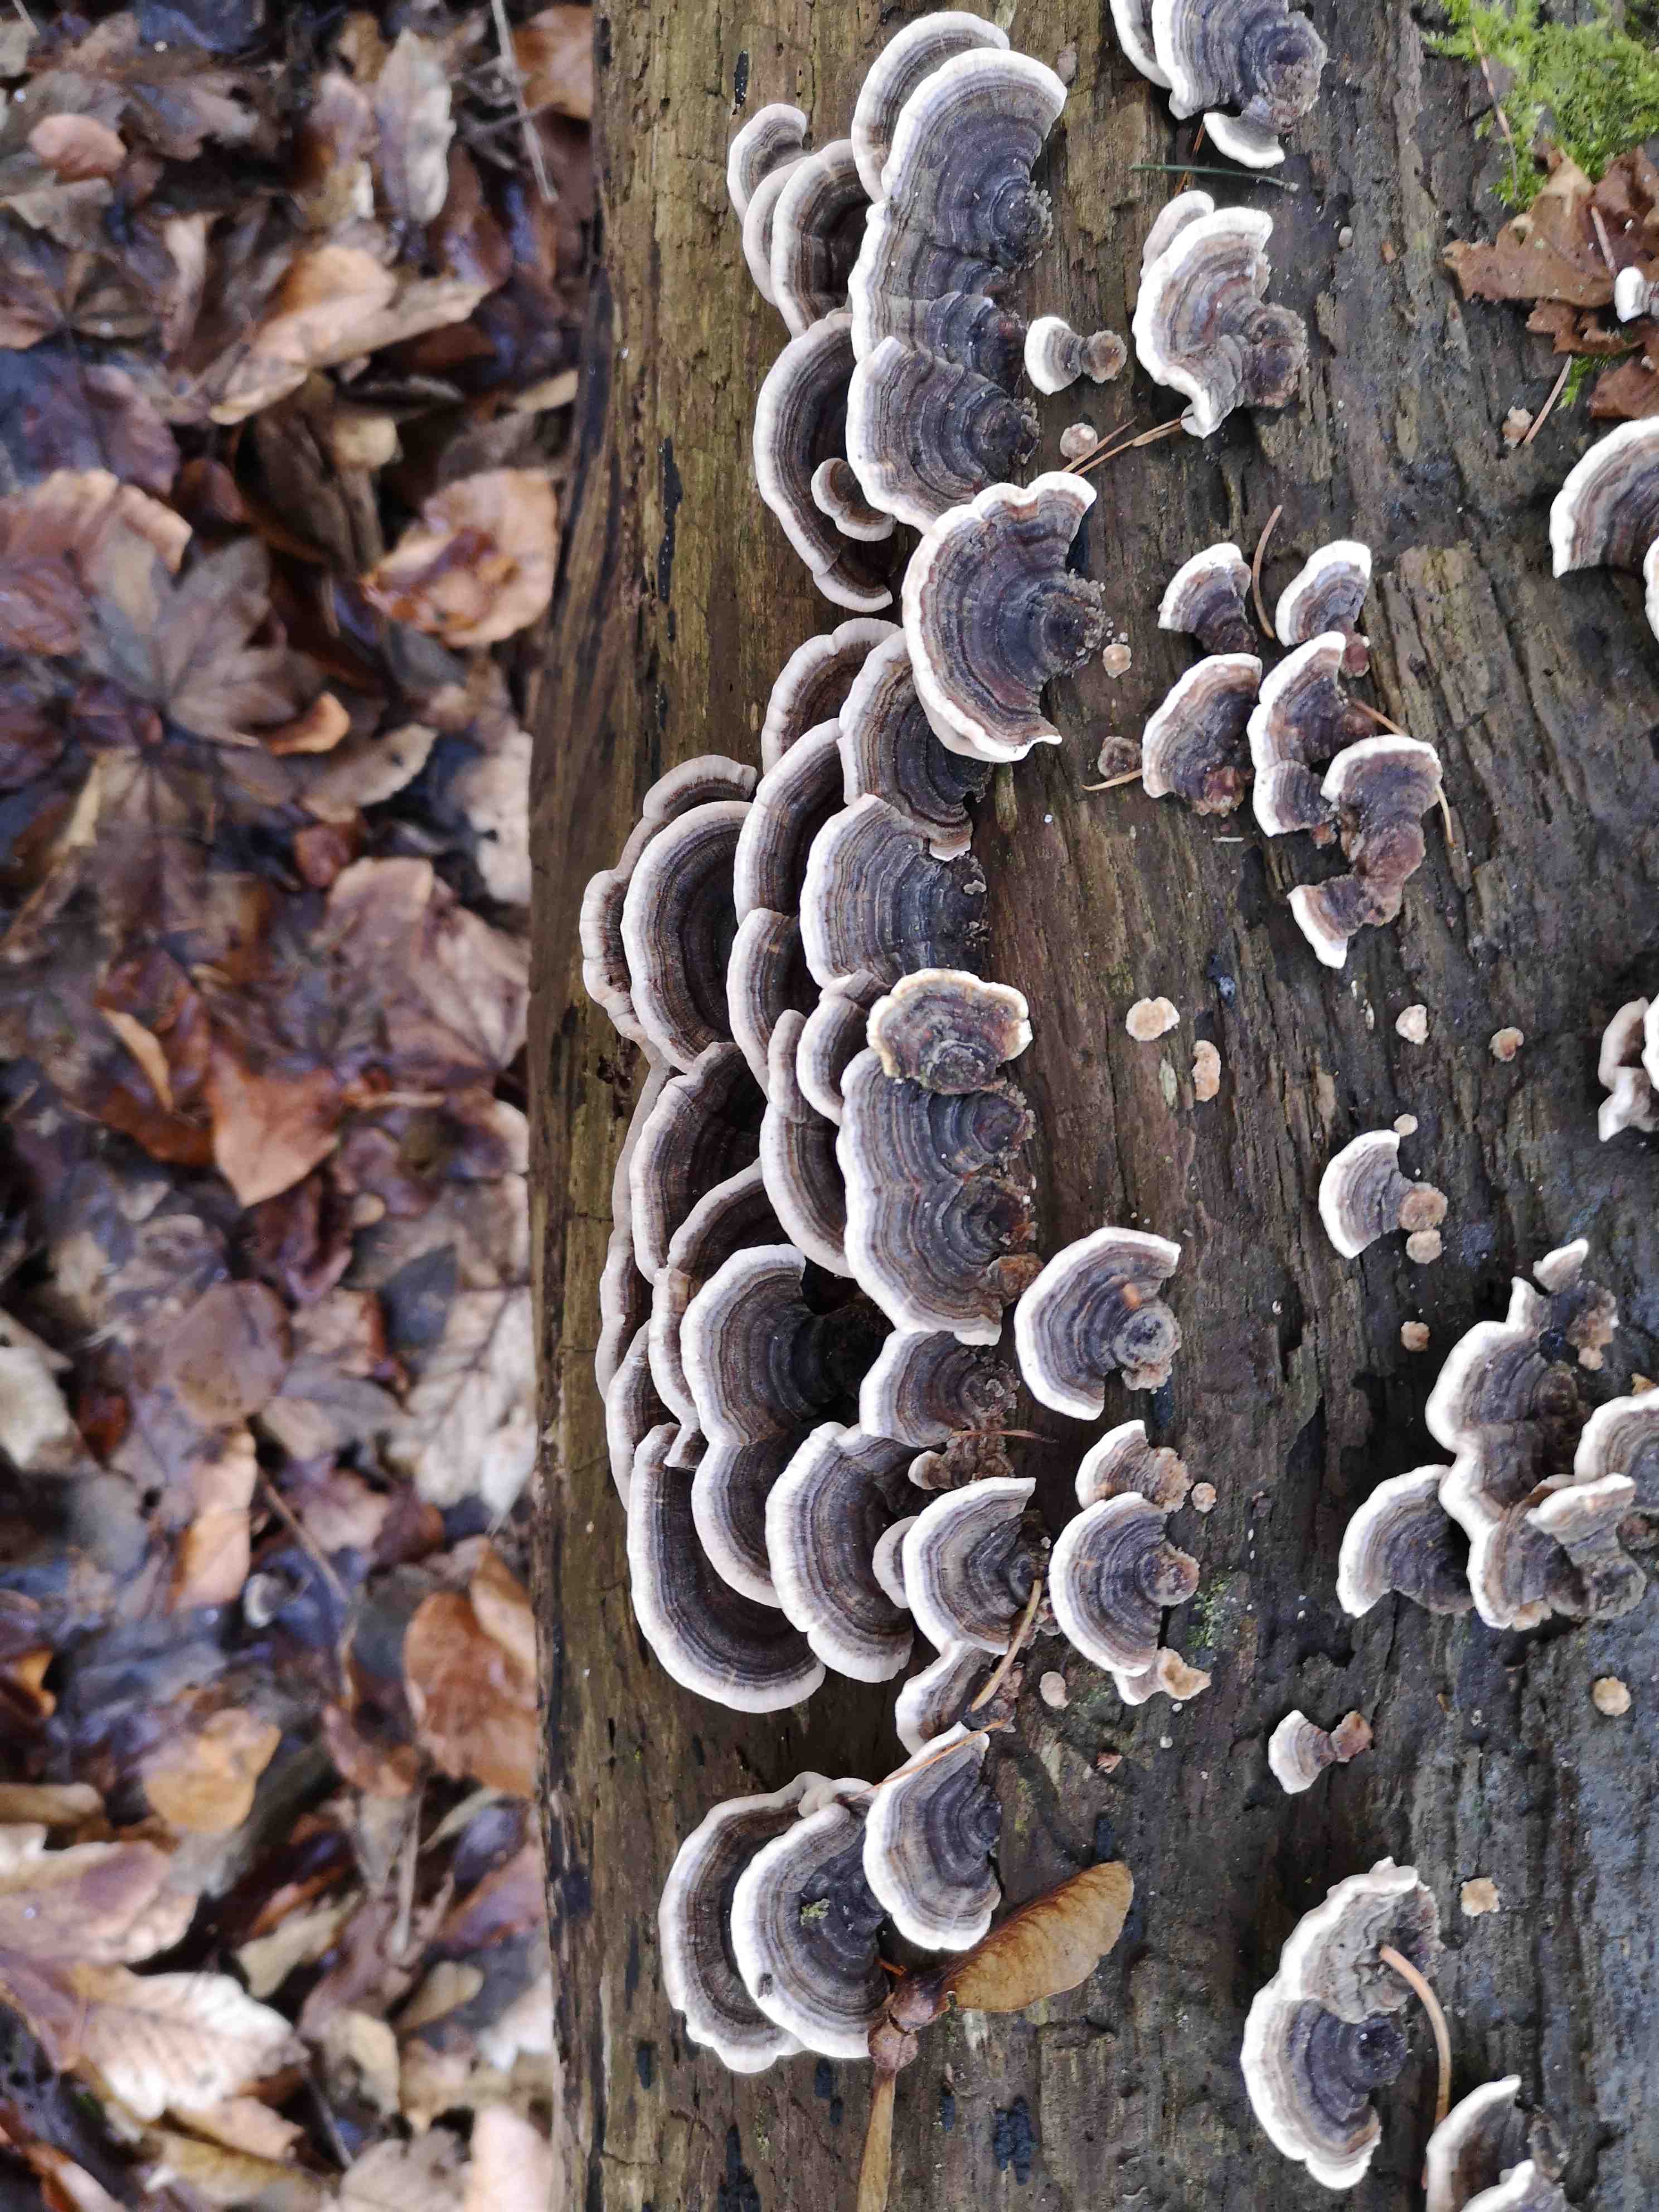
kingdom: Fungi
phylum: Basidiomycota
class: Agaricomycetes
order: Polyporales
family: Polyporaceae
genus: Trametes
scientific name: Trametes versicolor
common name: broget læderporesvamp
